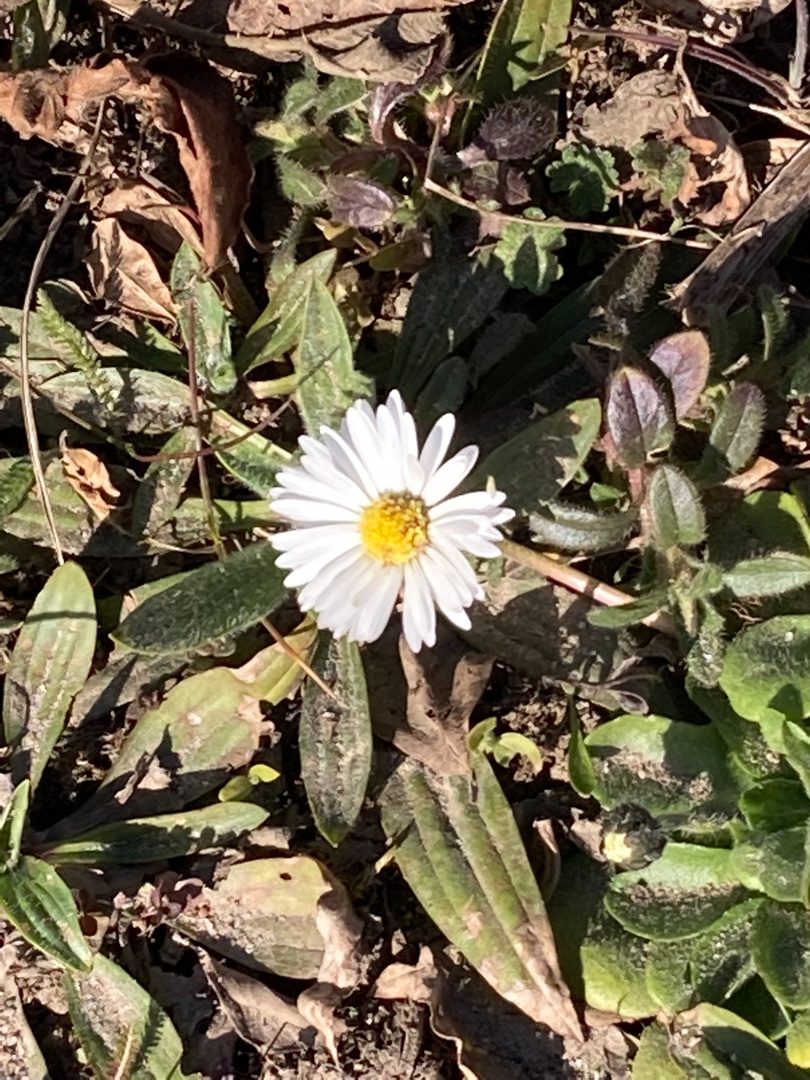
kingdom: Plantae
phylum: Tracheophyta
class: Magnoliopsida
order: Asterales
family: Asteraceae
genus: Bellis
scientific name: Bellis perennis
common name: Tusindfryd
